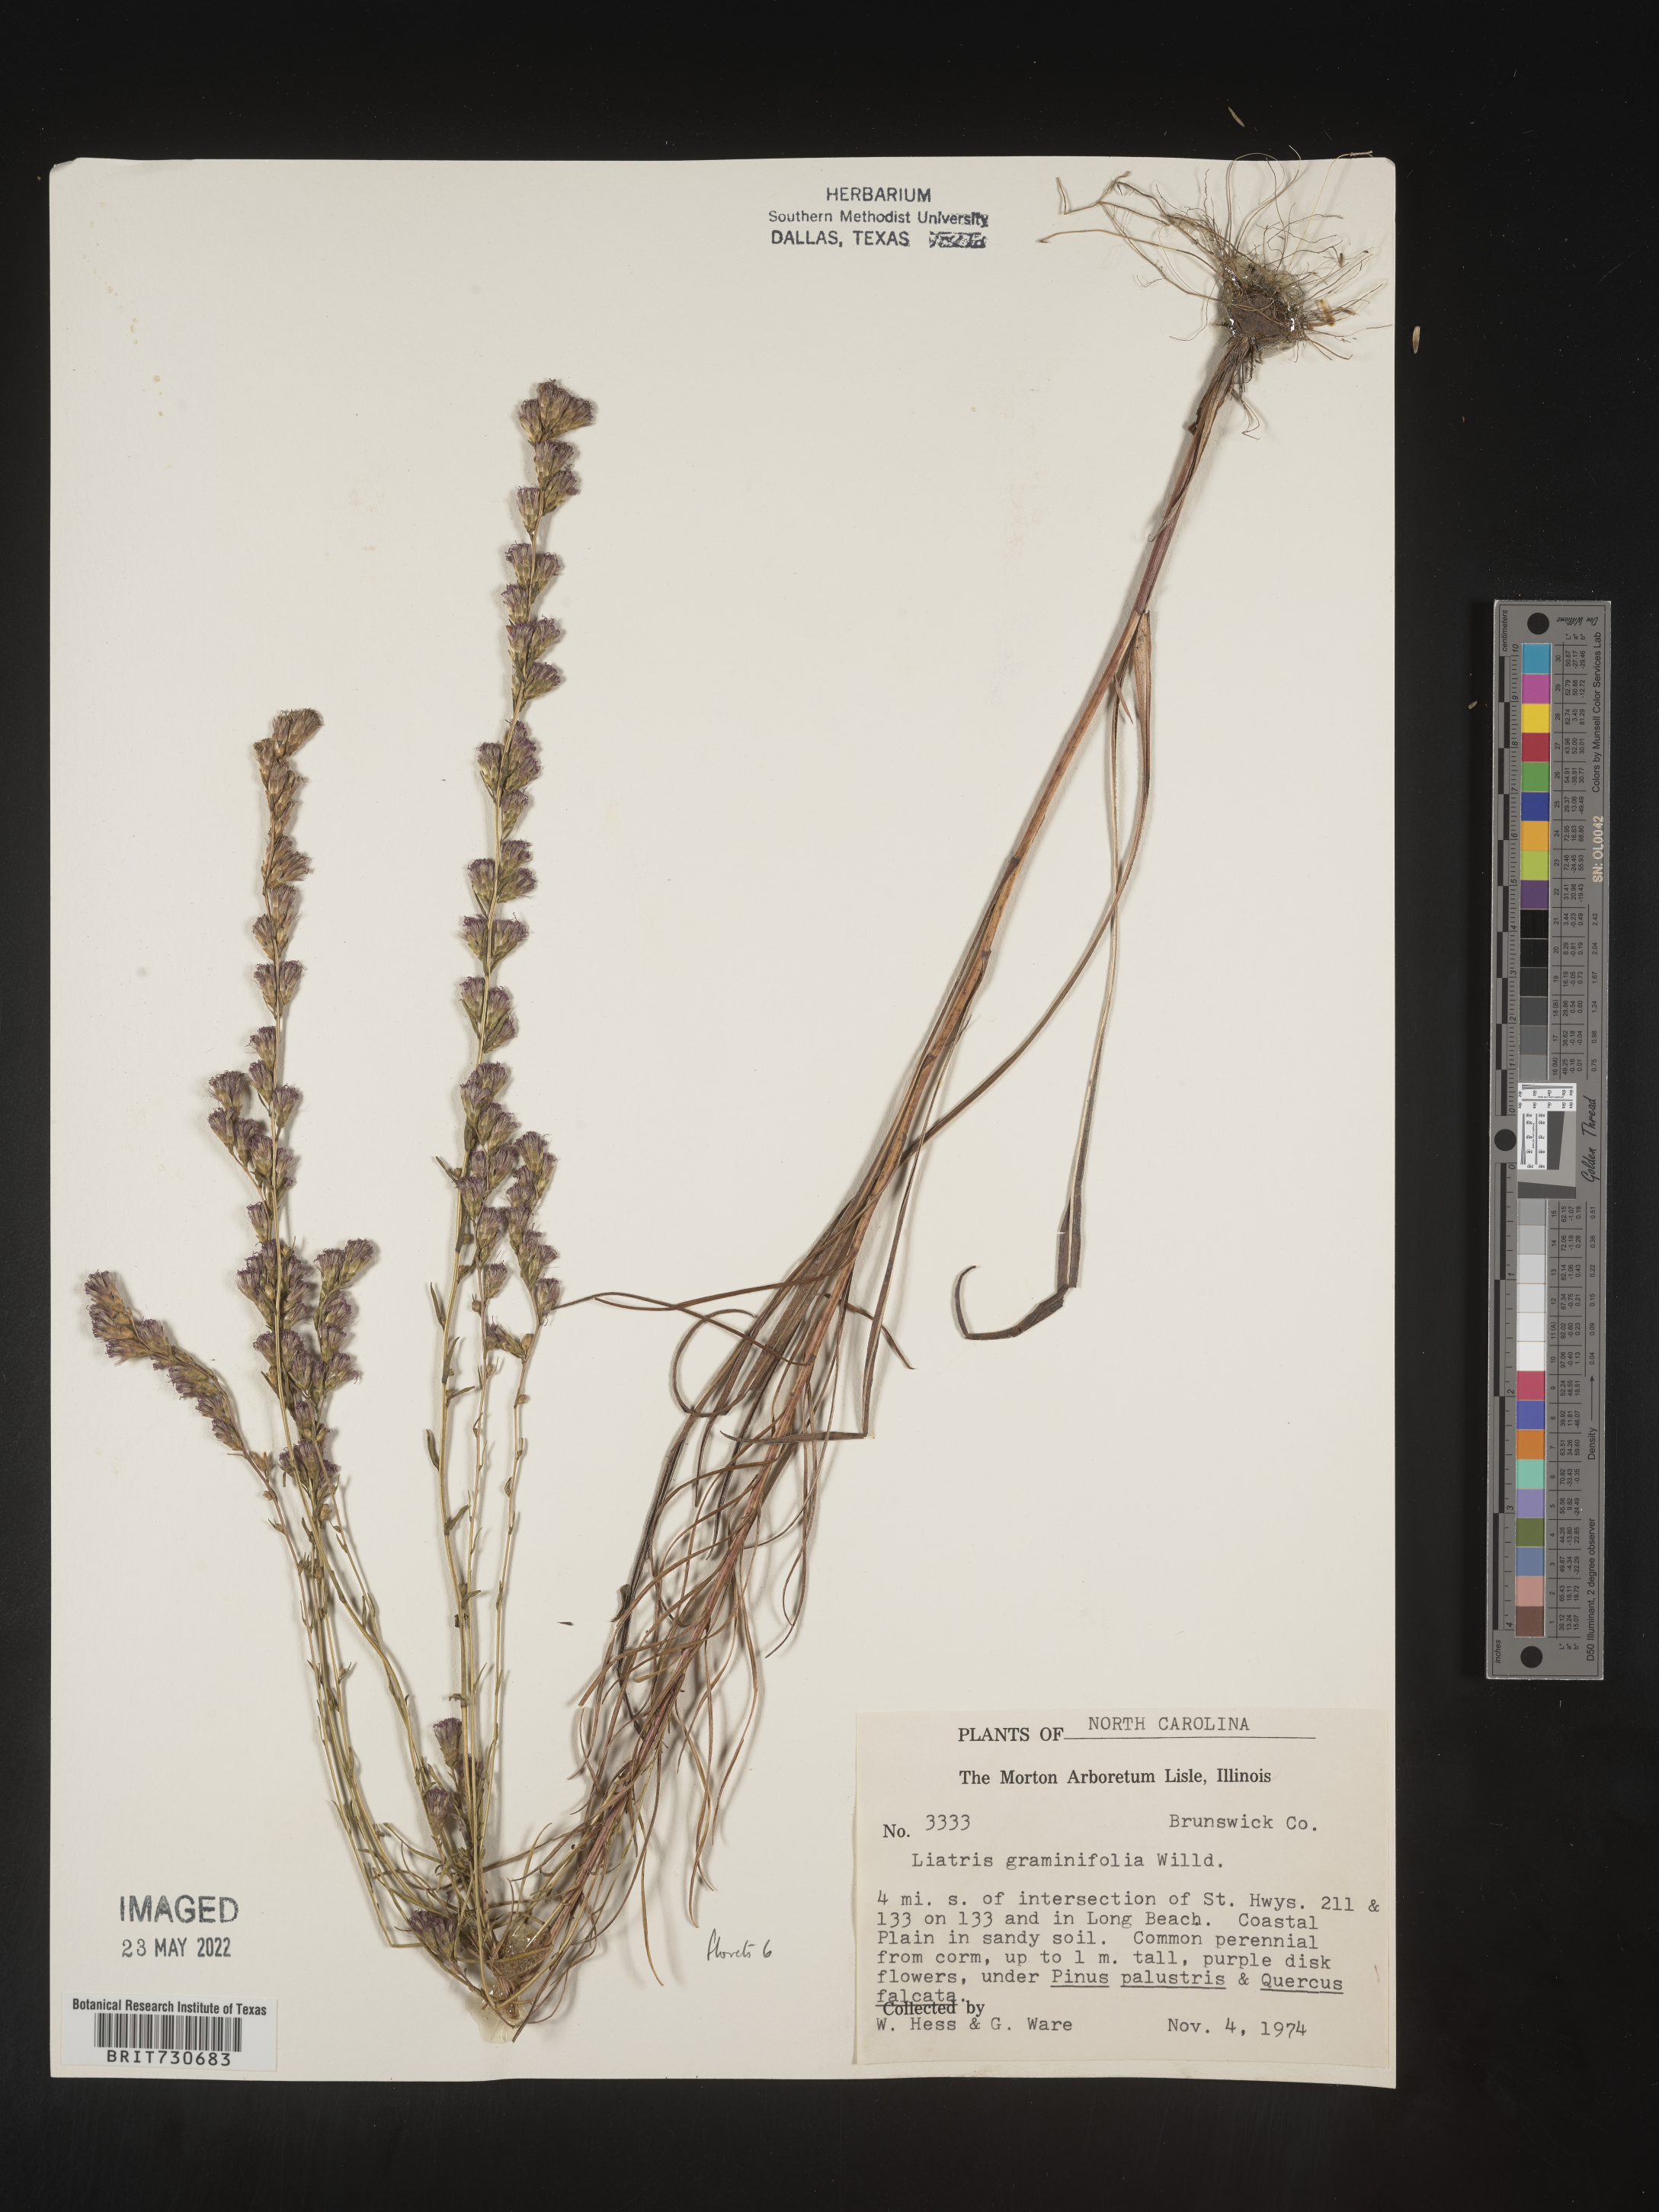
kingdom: Plantae
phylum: Tracheophyta
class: Magnoliopsida
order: Asterales
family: Asteraceae
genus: Liatris
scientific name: Liatris pilosa
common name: Grass-leaf gayfeather
